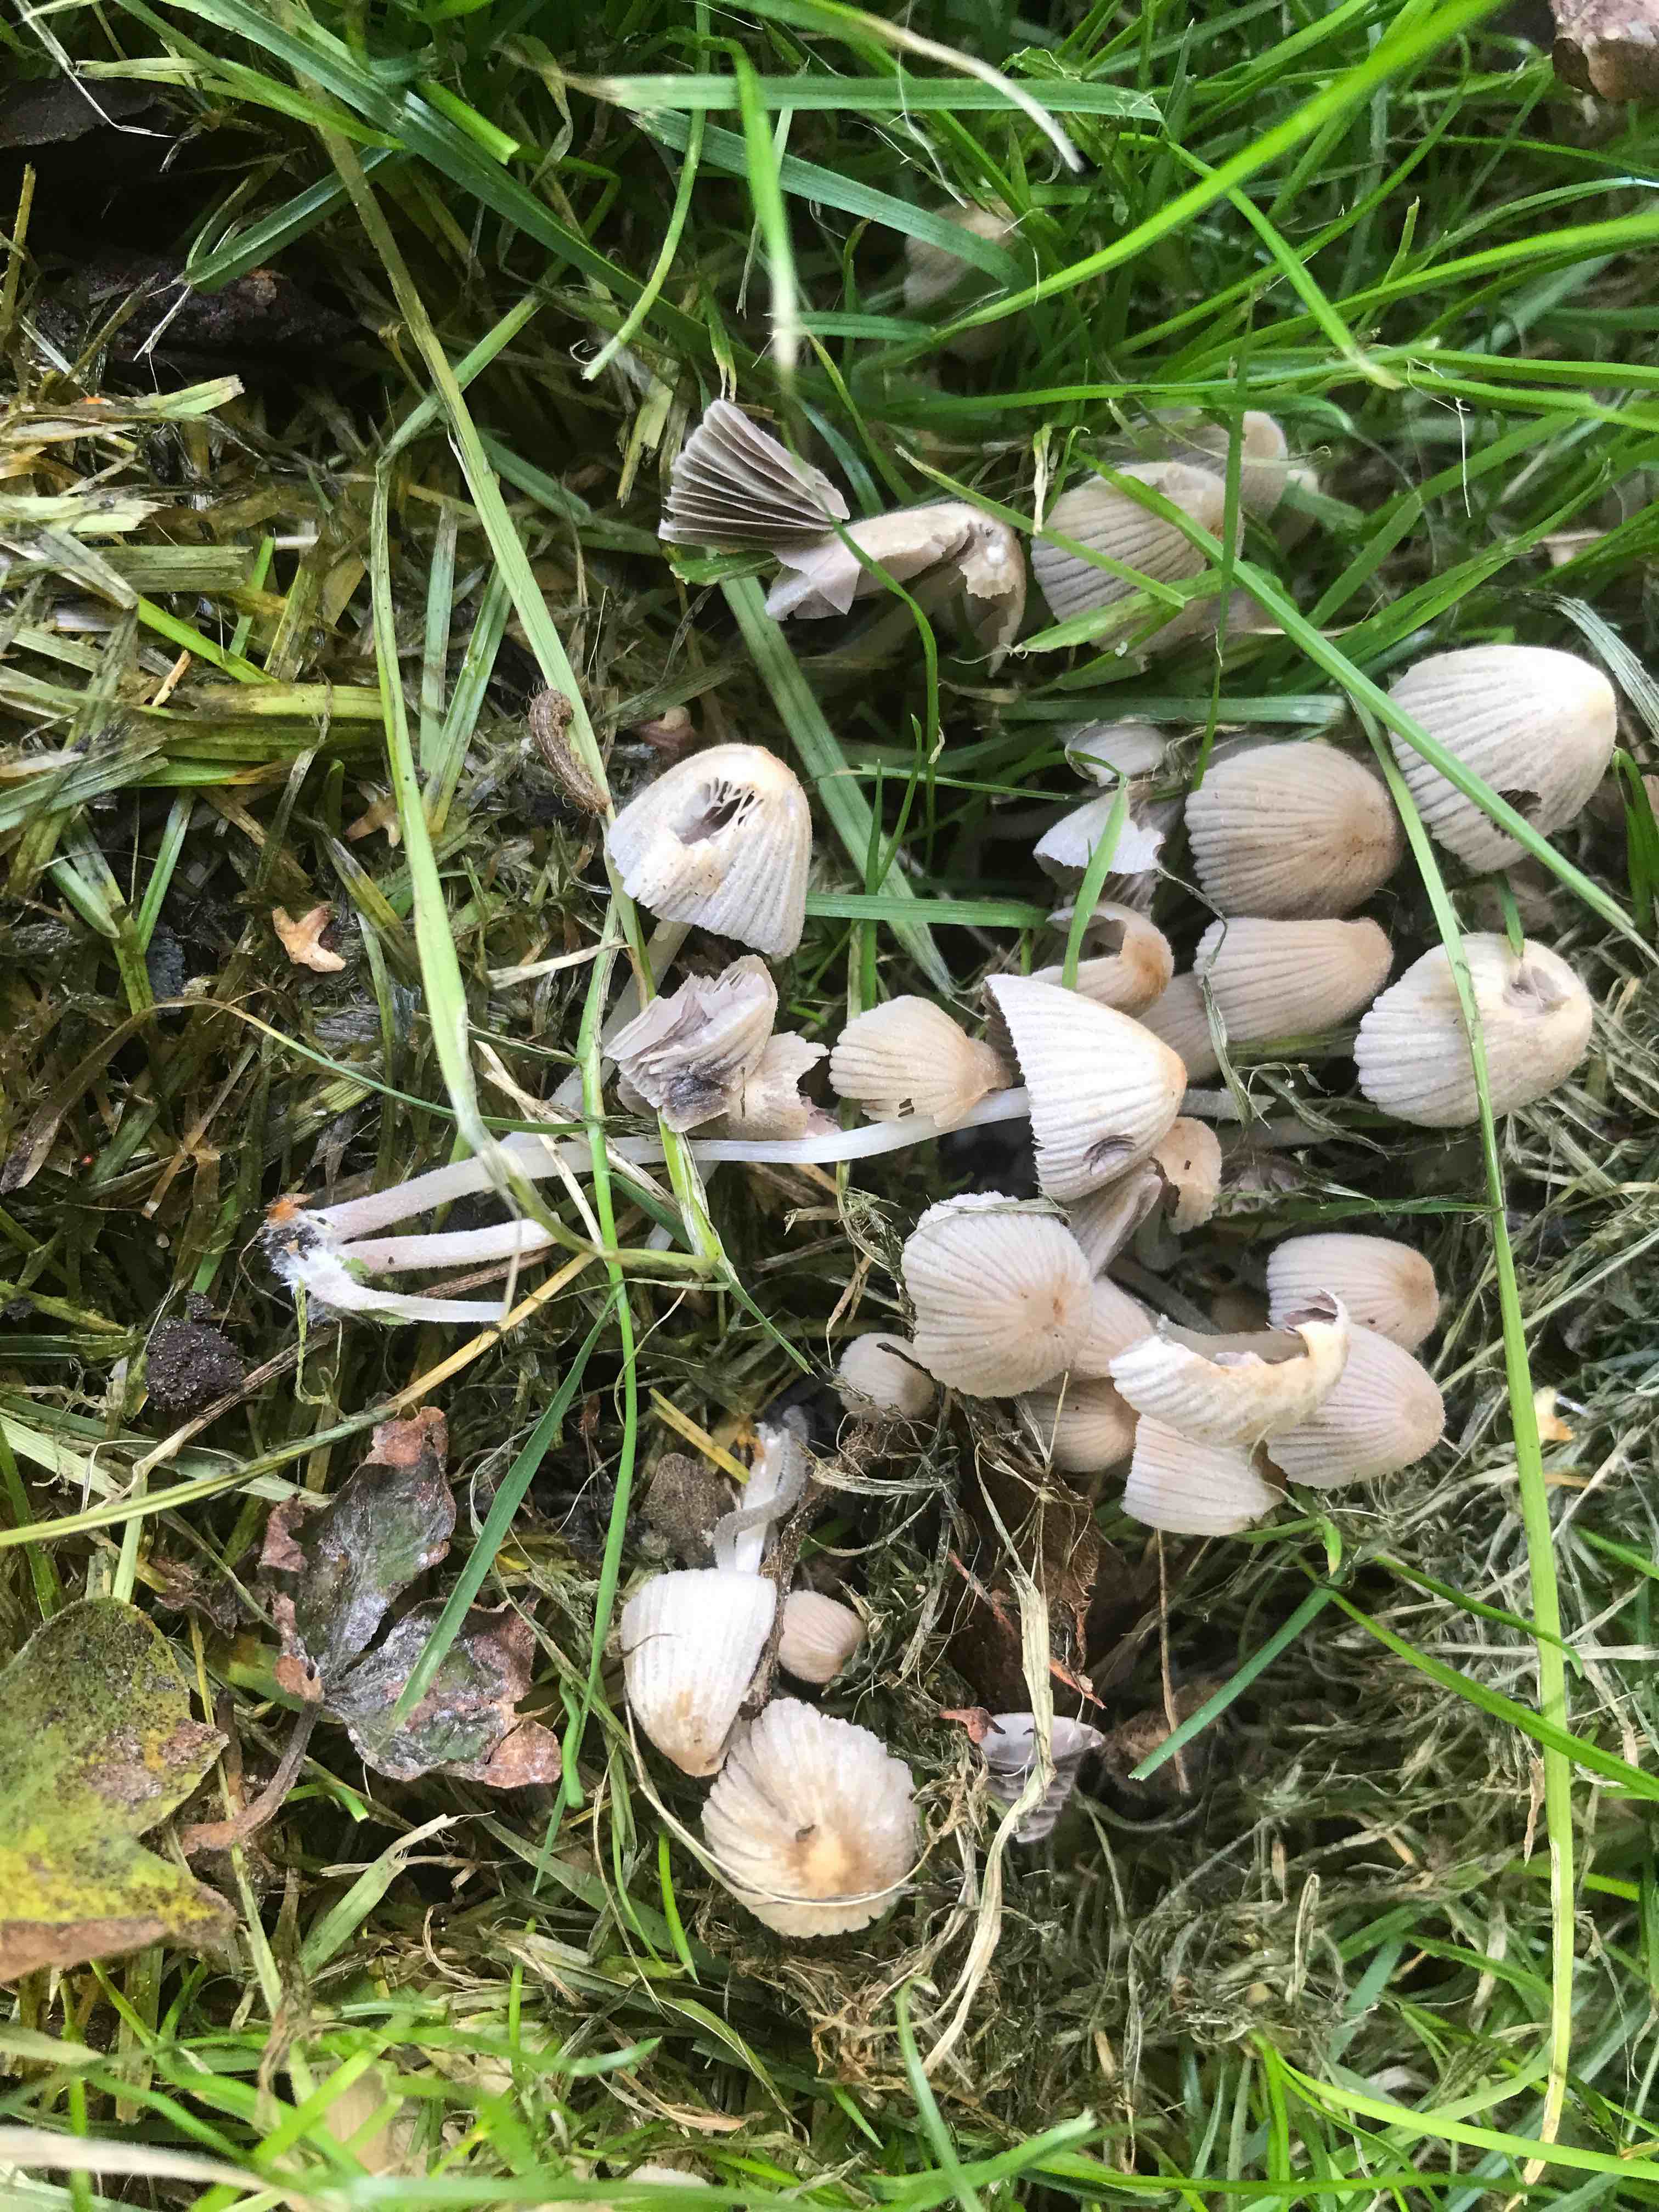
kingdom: Fungi
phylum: Basidiomycota
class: Agaricomycetes
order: Agaricales
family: Psathyrellaceae
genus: Coprinellus
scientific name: Coprinellus disseminatus
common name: bredsået blækhat
